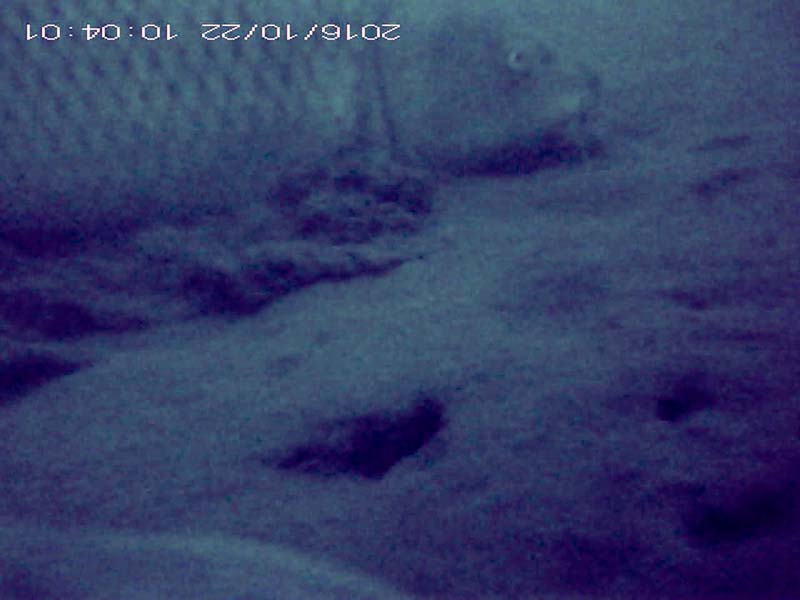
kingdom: Animalia
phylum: Chordata
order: Cypriniformes
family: Cyprinidae
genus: Cyprinus
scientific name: Cyprinus carpio
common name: コイ
